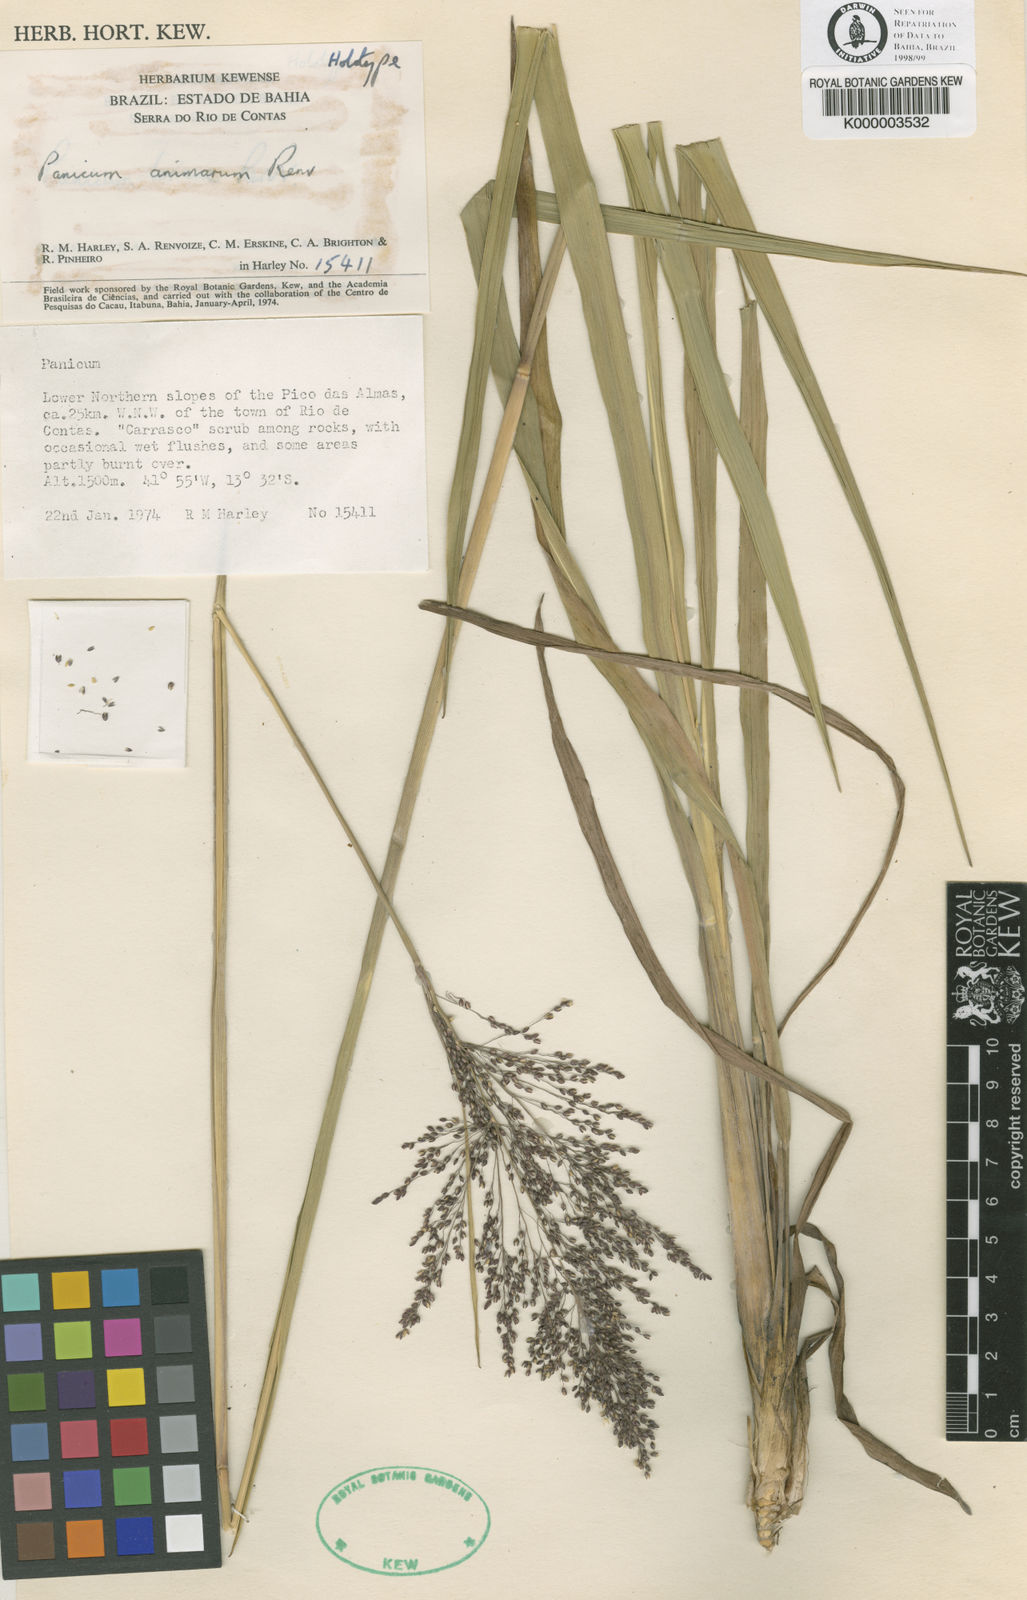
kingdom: Plantae
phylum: Tracheophyta
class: Liliopsida
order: Poales
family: Poaceae
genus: Apochloa
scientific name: Apochloa animara
